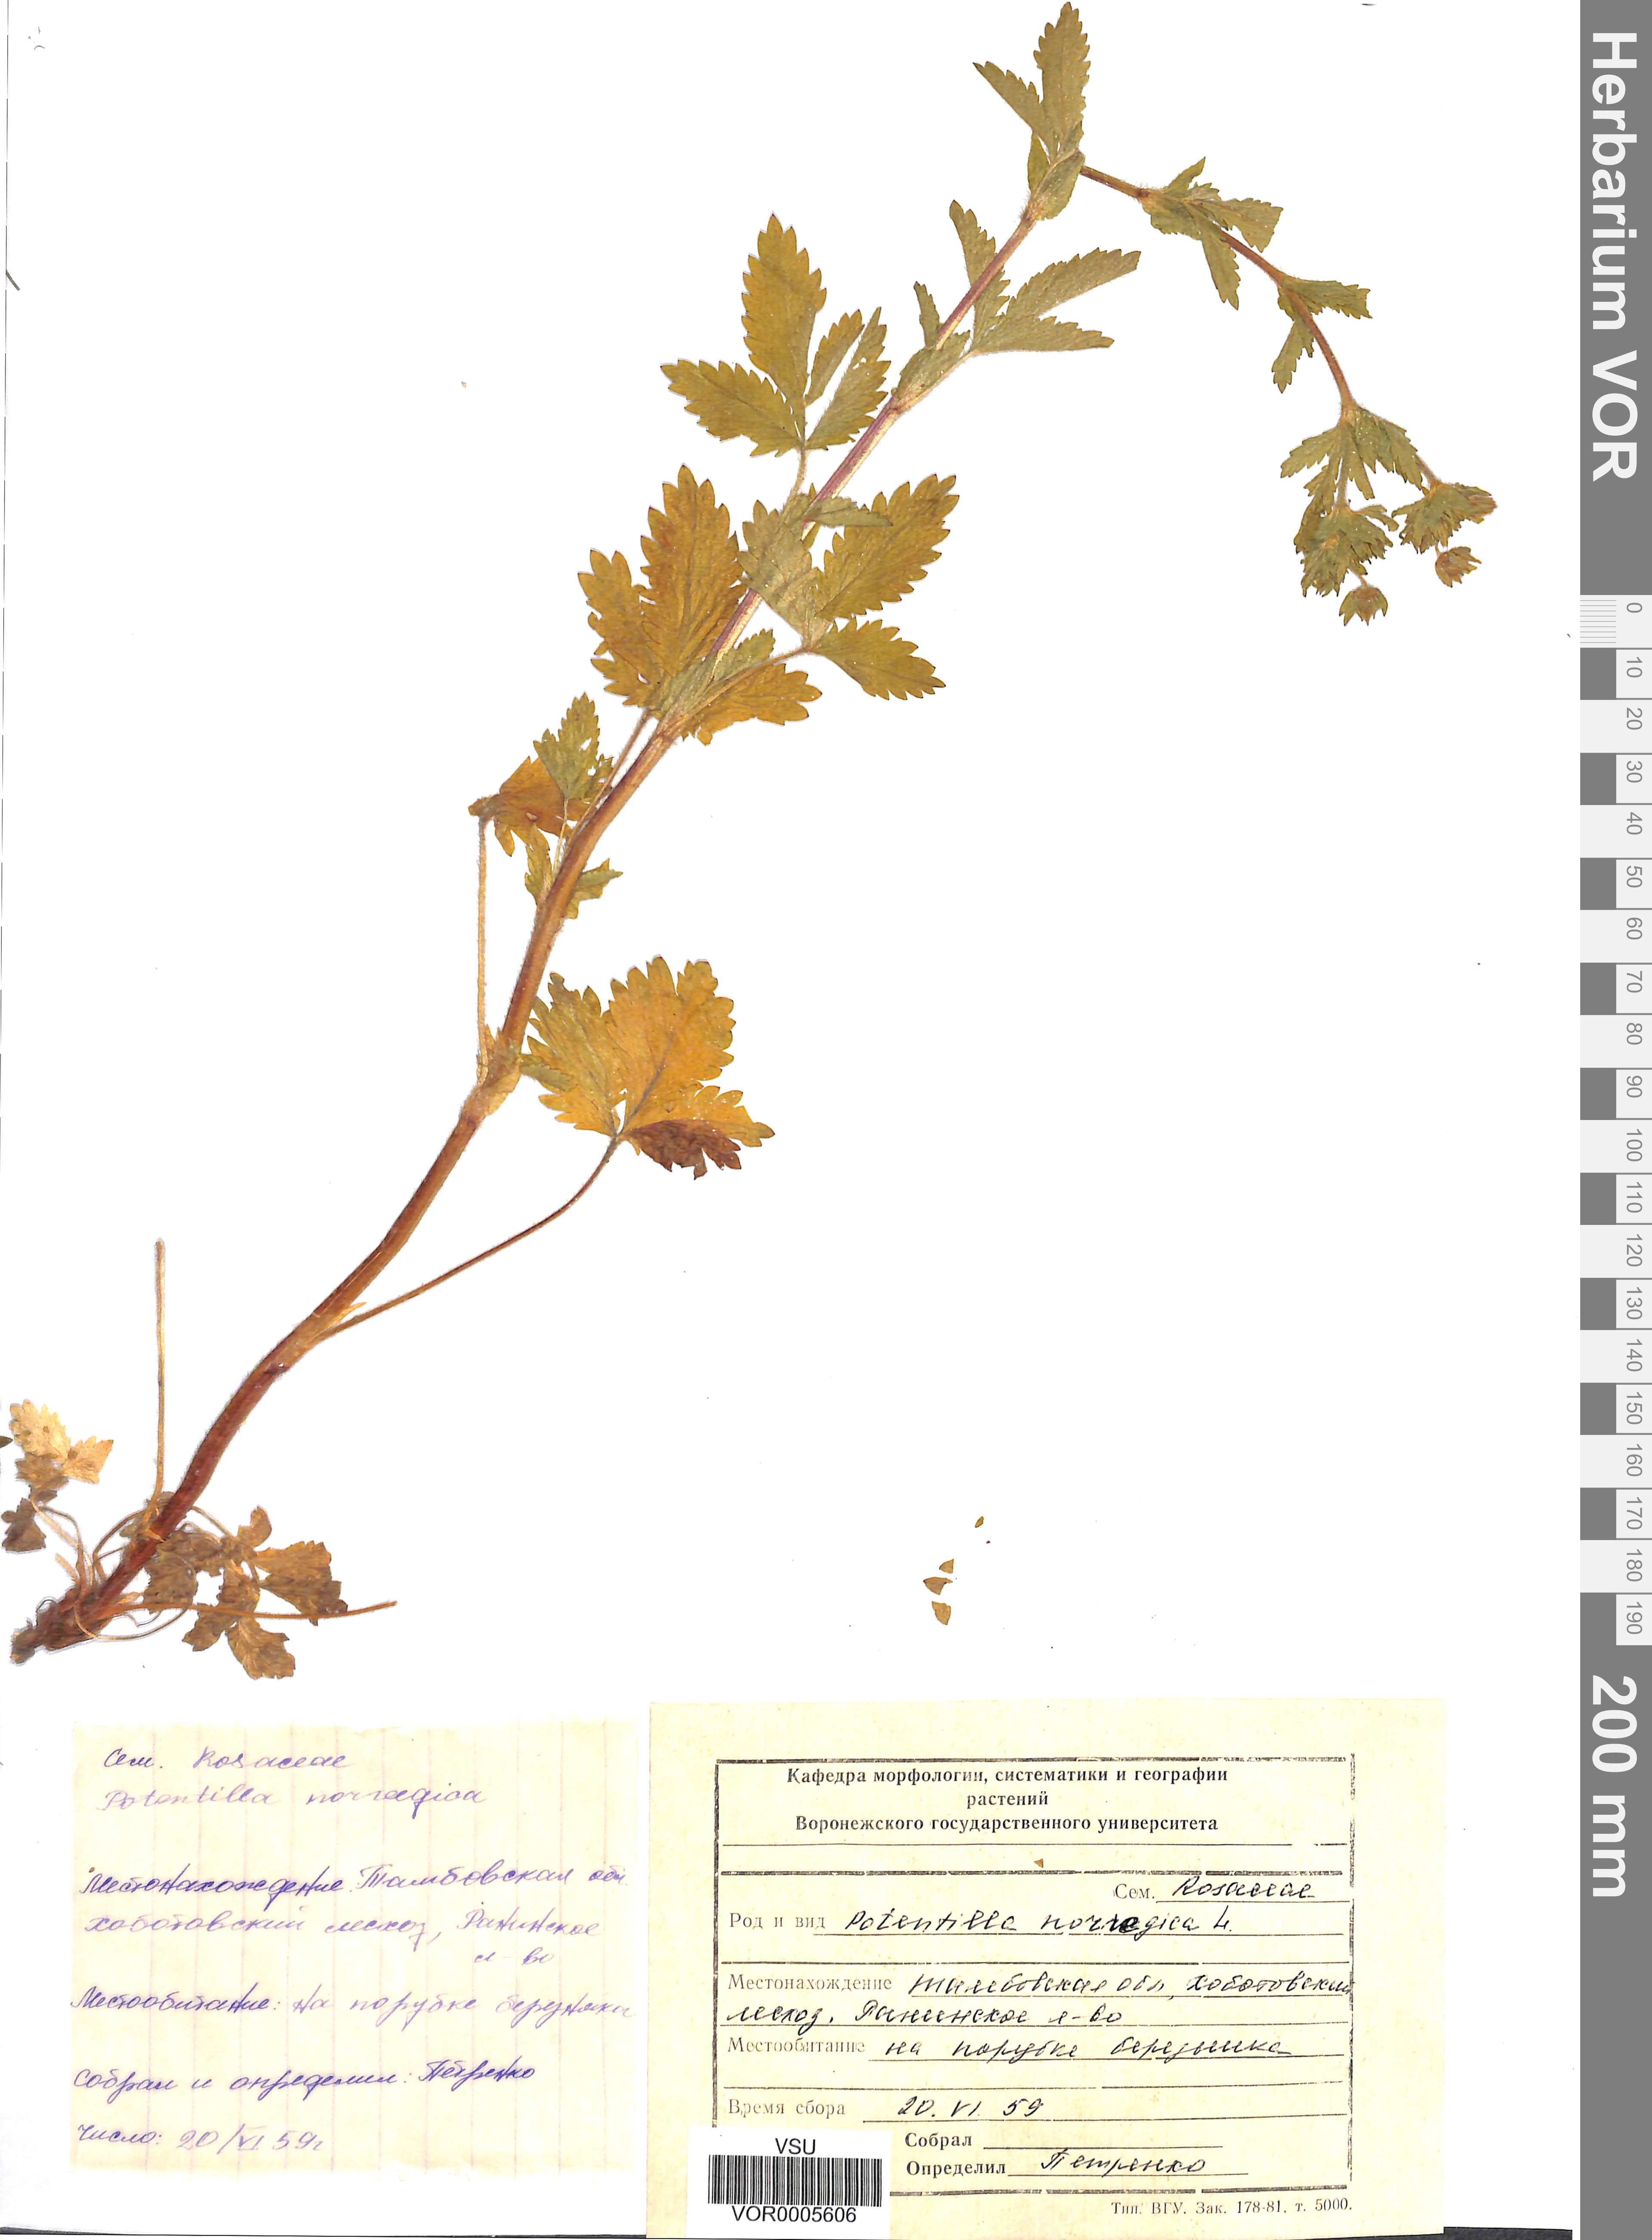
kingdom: Plantae
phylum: Tracheophyta
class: Magnoliopsida
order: Rosales
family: Rosaceae
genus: Potentilla
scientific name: Potentilla erecta
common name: Tormentil
